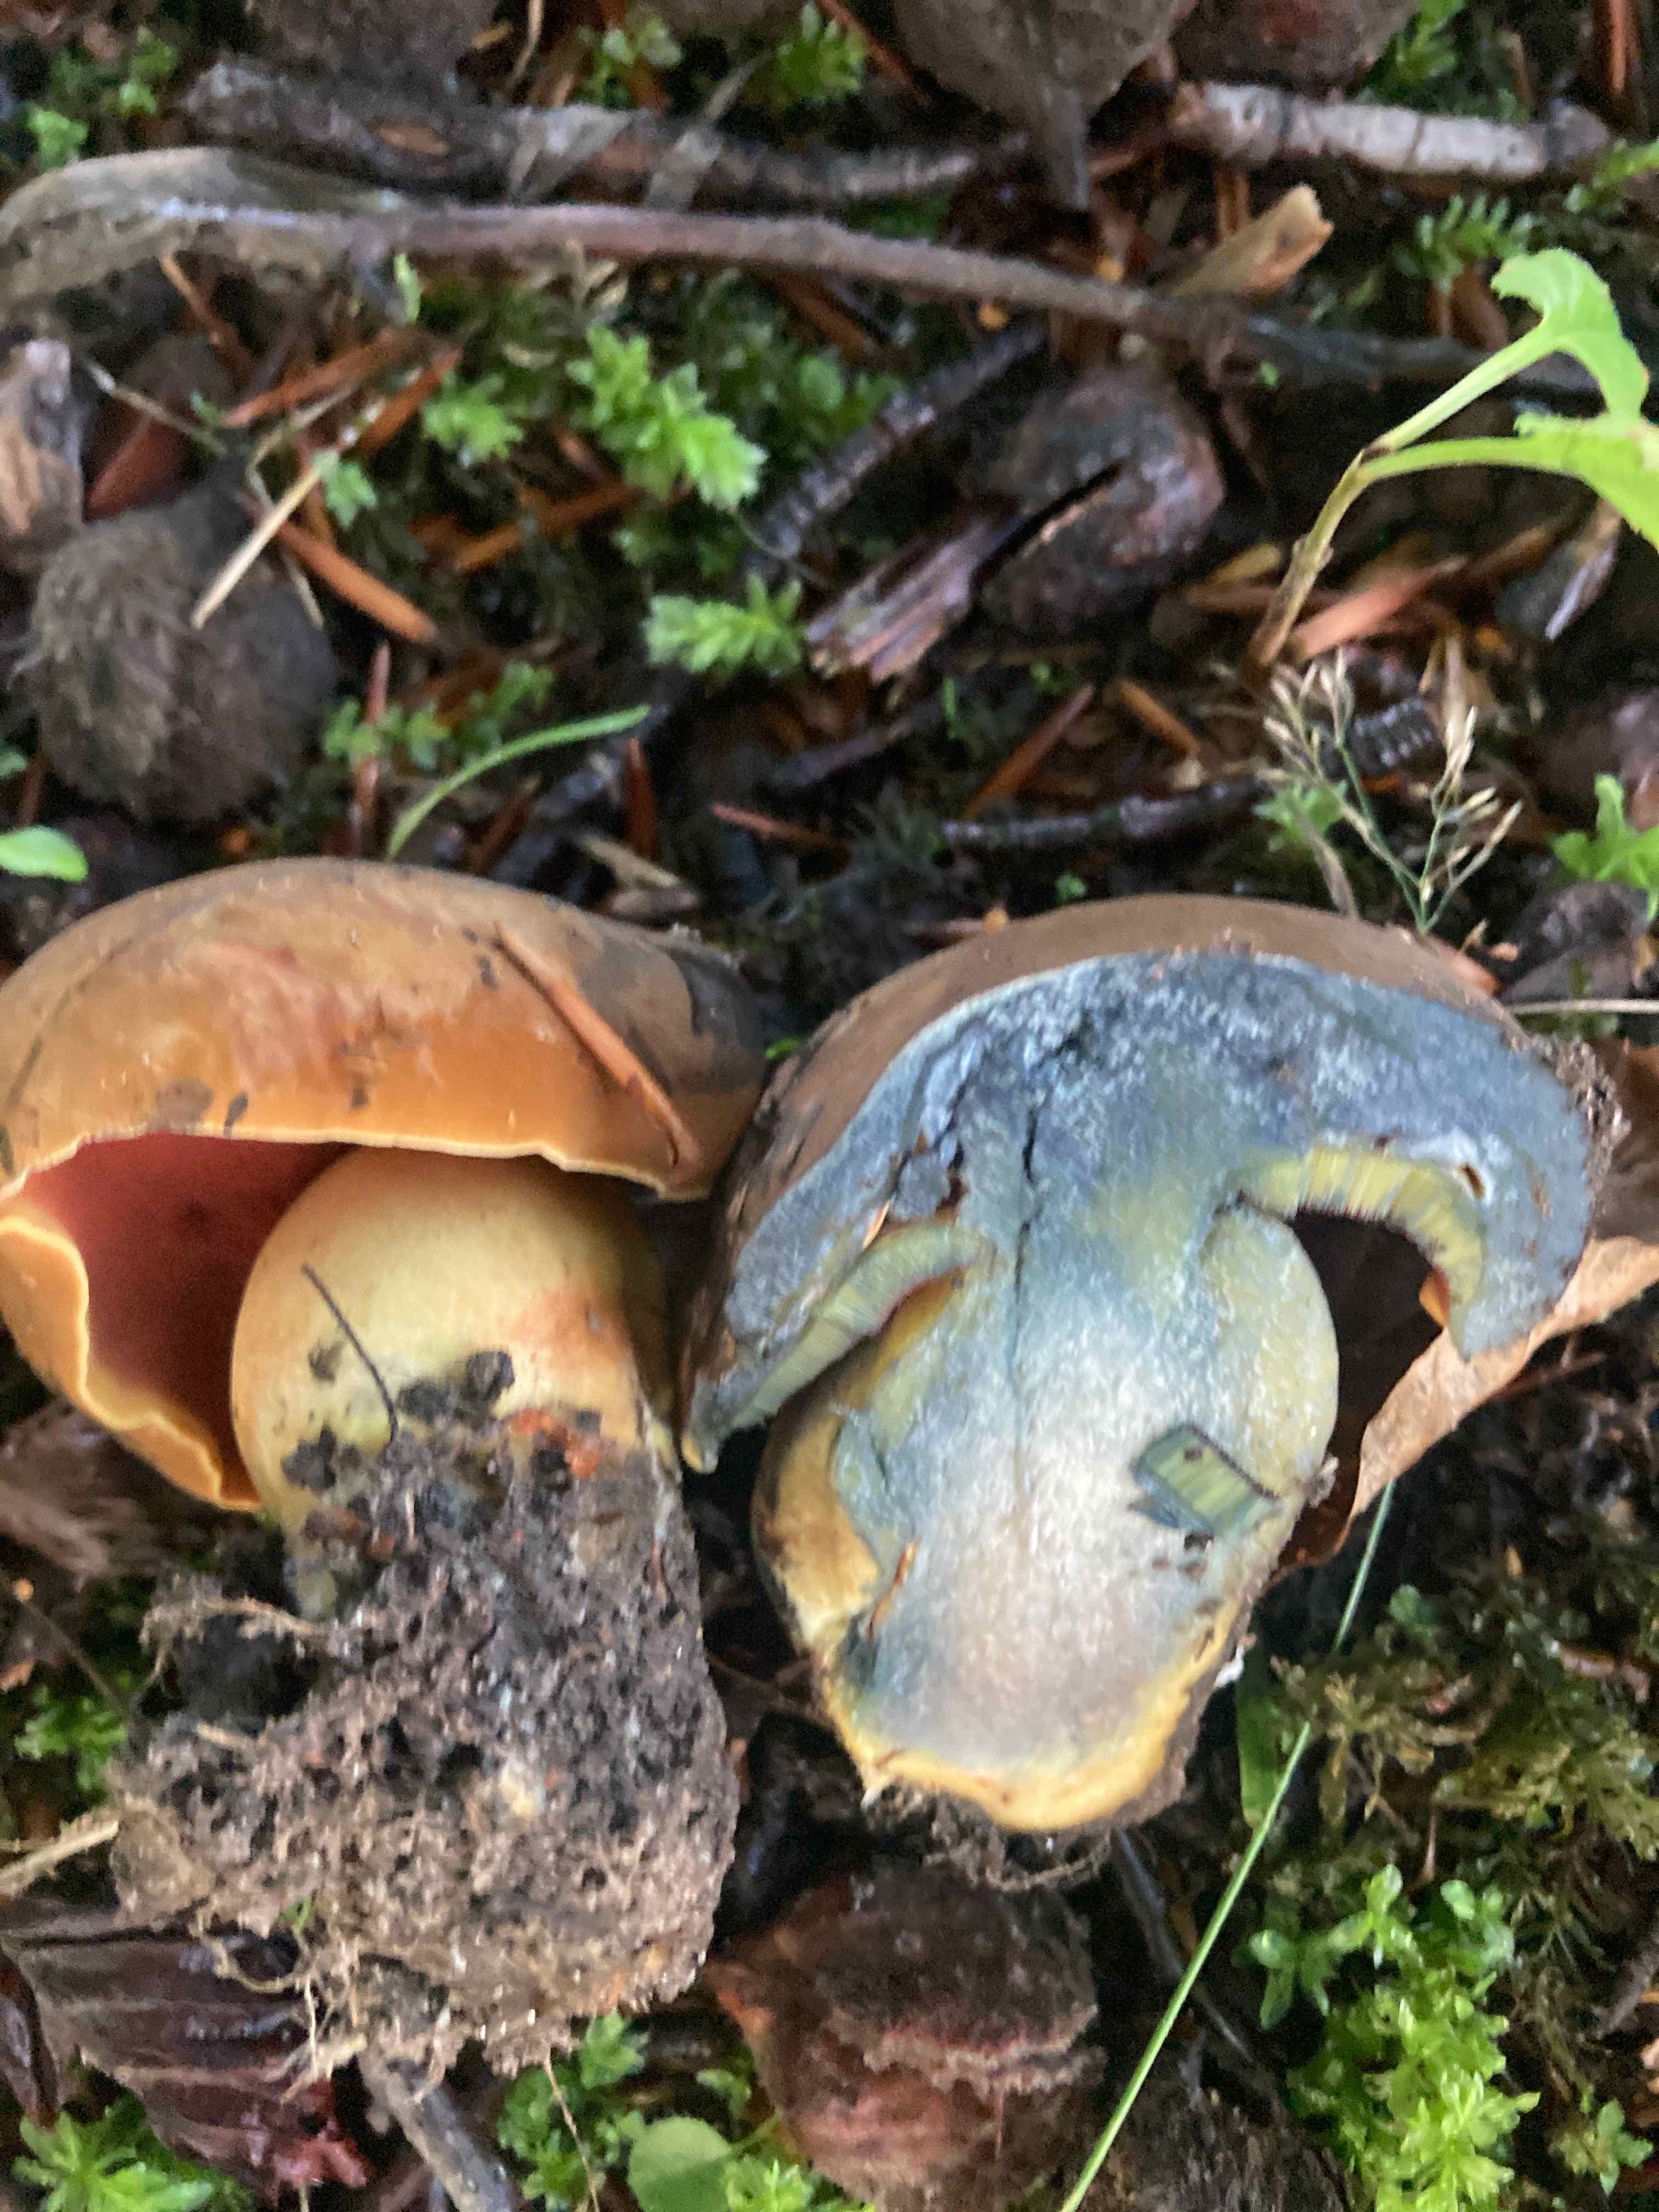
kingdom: Fungi
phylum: Basidiomycota
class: Agaricomycetes
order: Boletales
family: Boletaceae
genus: Neoboletus
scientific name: Neoboletus xanthopus
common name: finprikket indigorørhat
